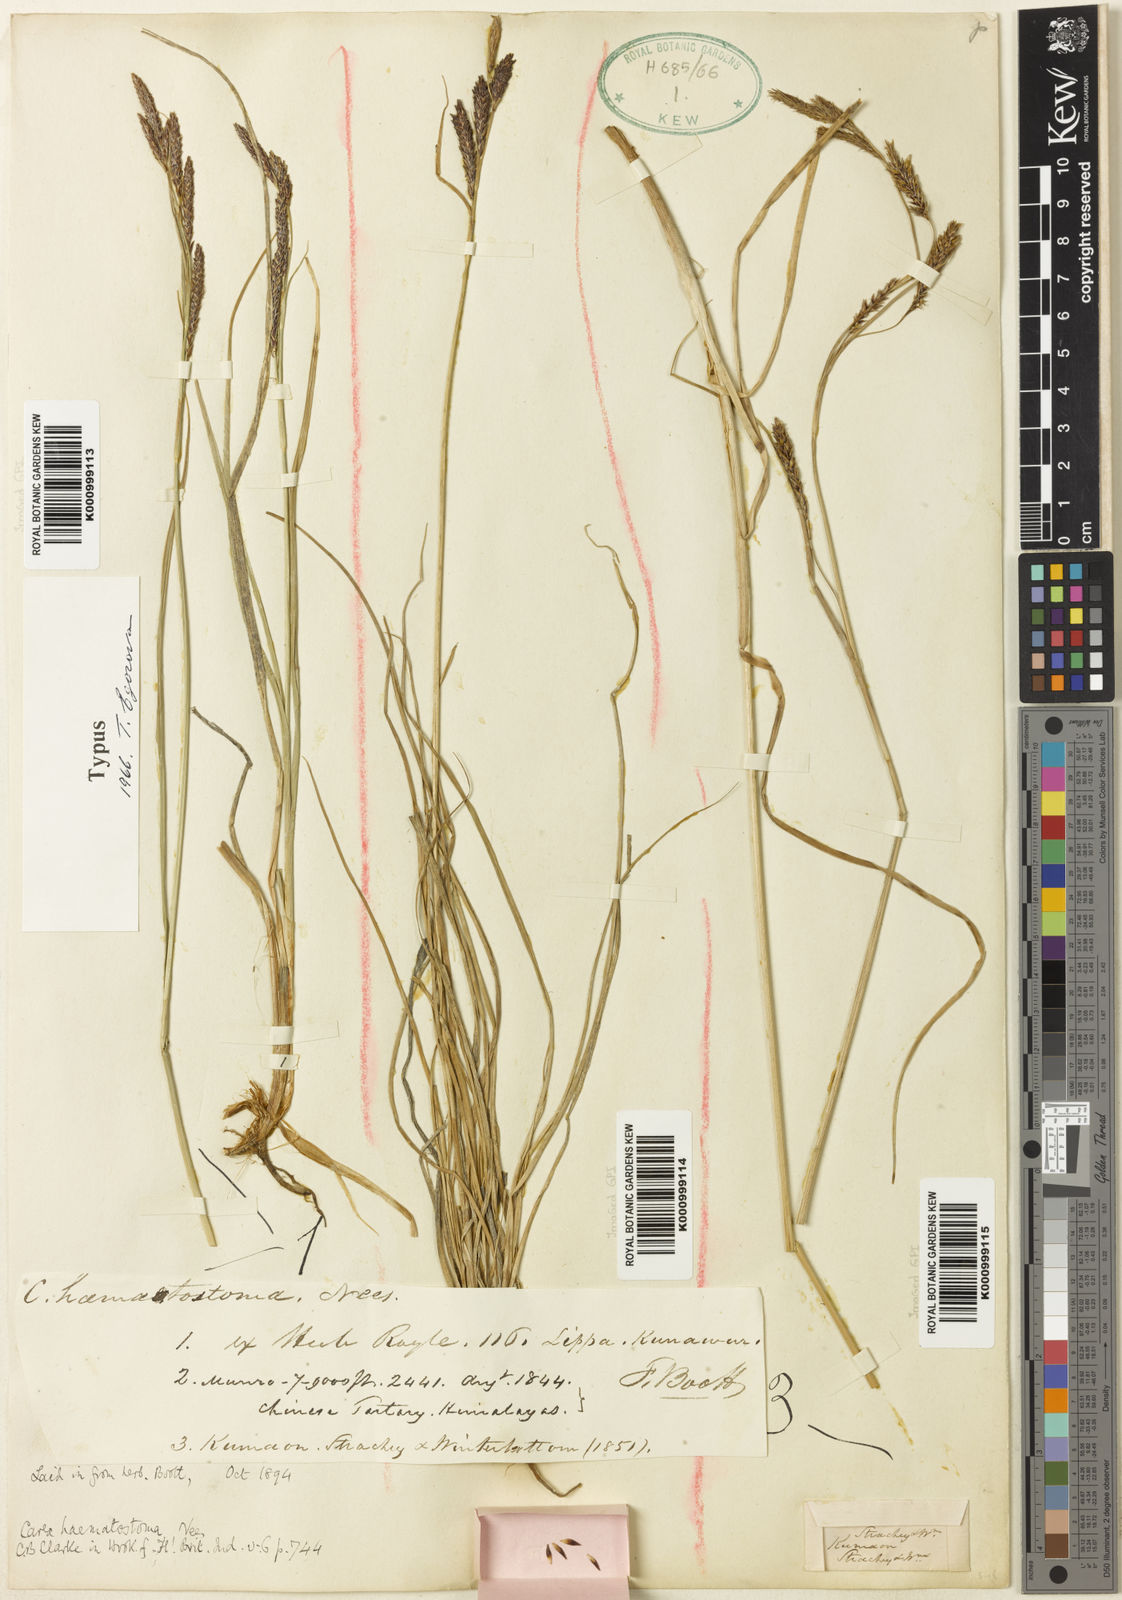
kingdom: Plantae
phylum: Tracheophyta
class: Liliopsida
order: Poales
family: Cyperaceae
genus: Carex
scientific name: Carex haematostoma
